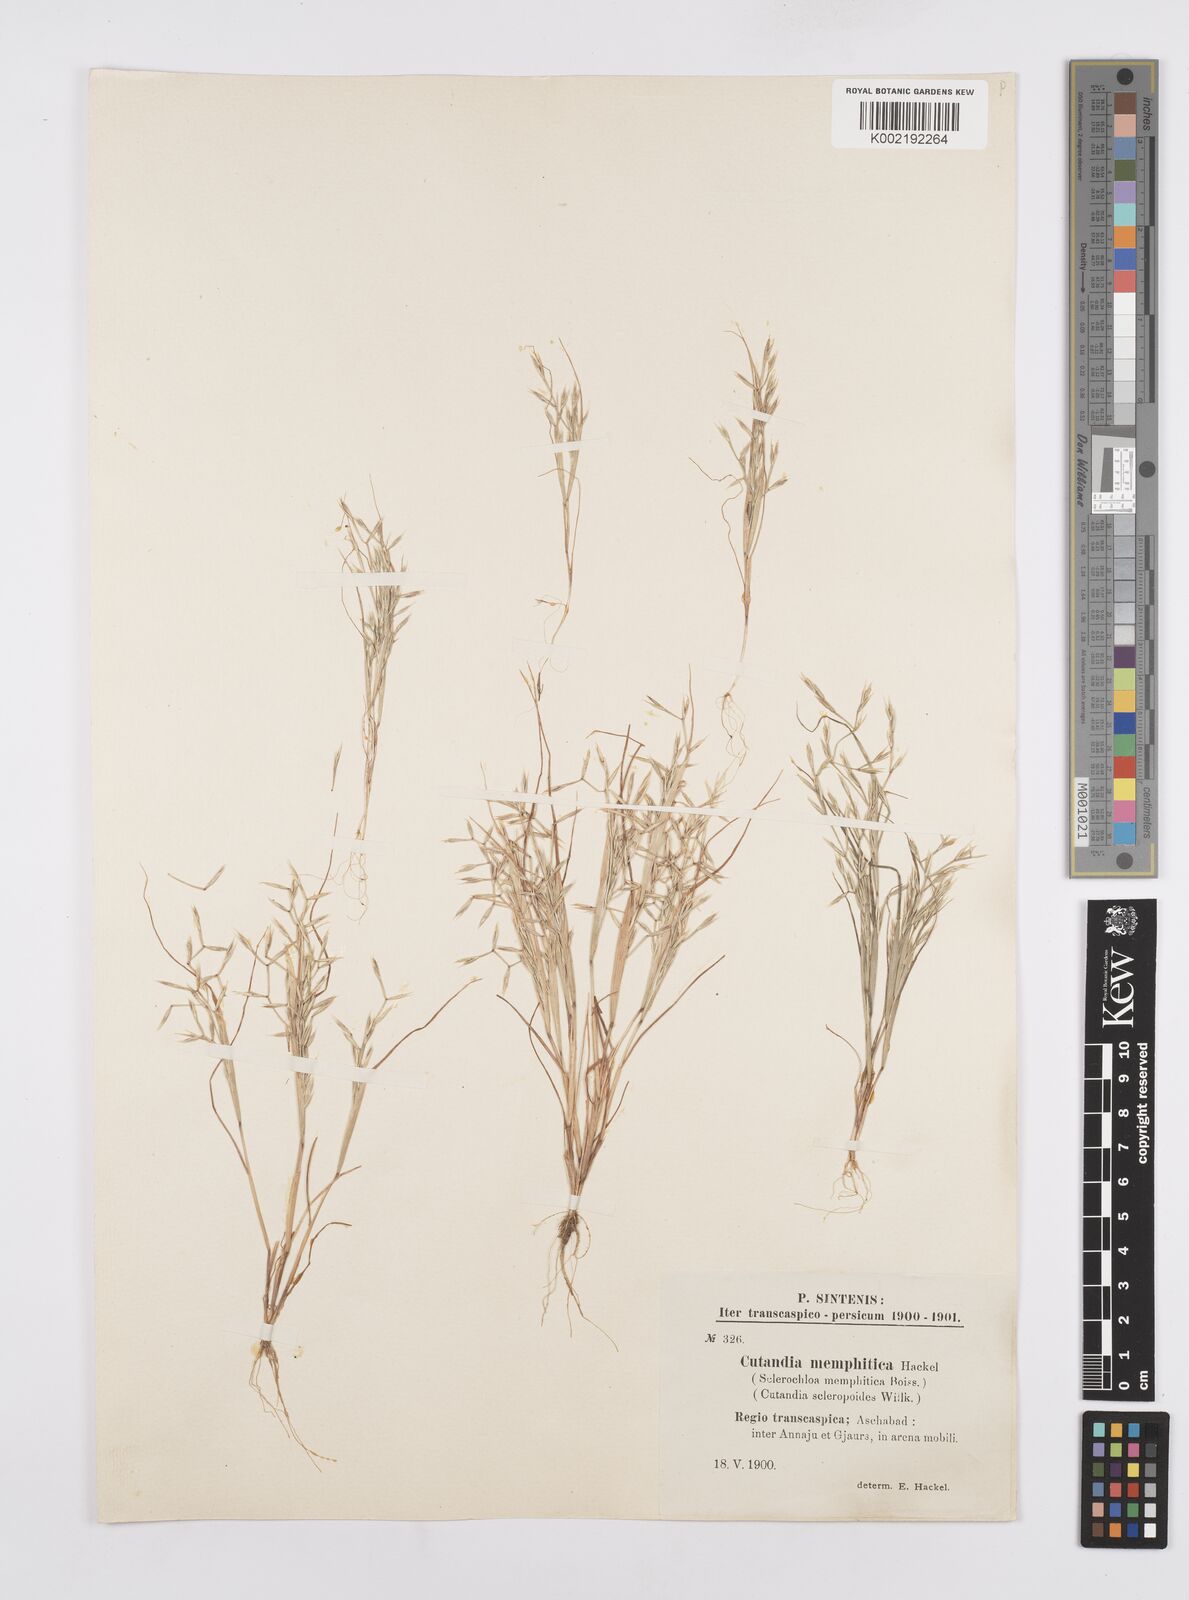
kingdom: Plantae
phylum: Tracheophyta
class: Liliopsida
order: Poales
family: Poaceae
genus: Cutandia
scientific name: Cutandia memphitica
